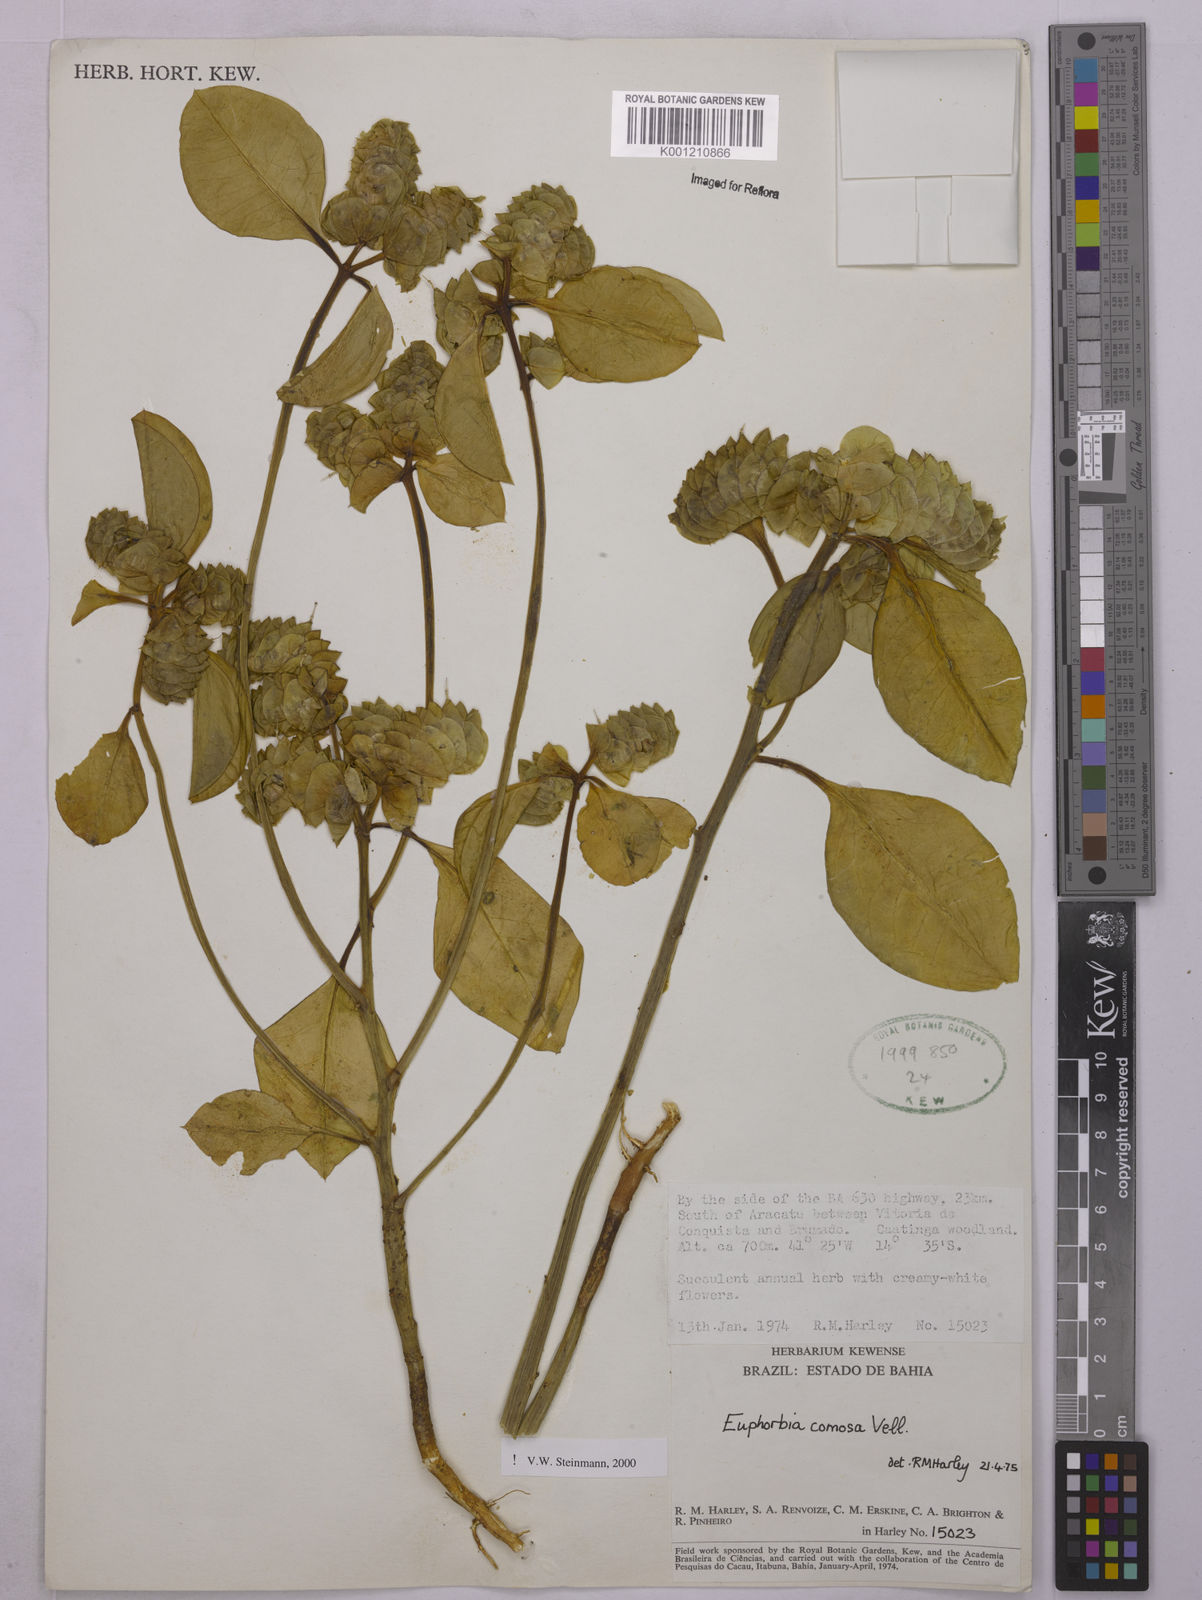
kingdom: Plantae
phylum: Tracheophyta
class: Magnoliopsida
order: Malpighiales
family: Euphorbiaceae
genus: Euphorbia
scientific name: Euphorbia comosa
